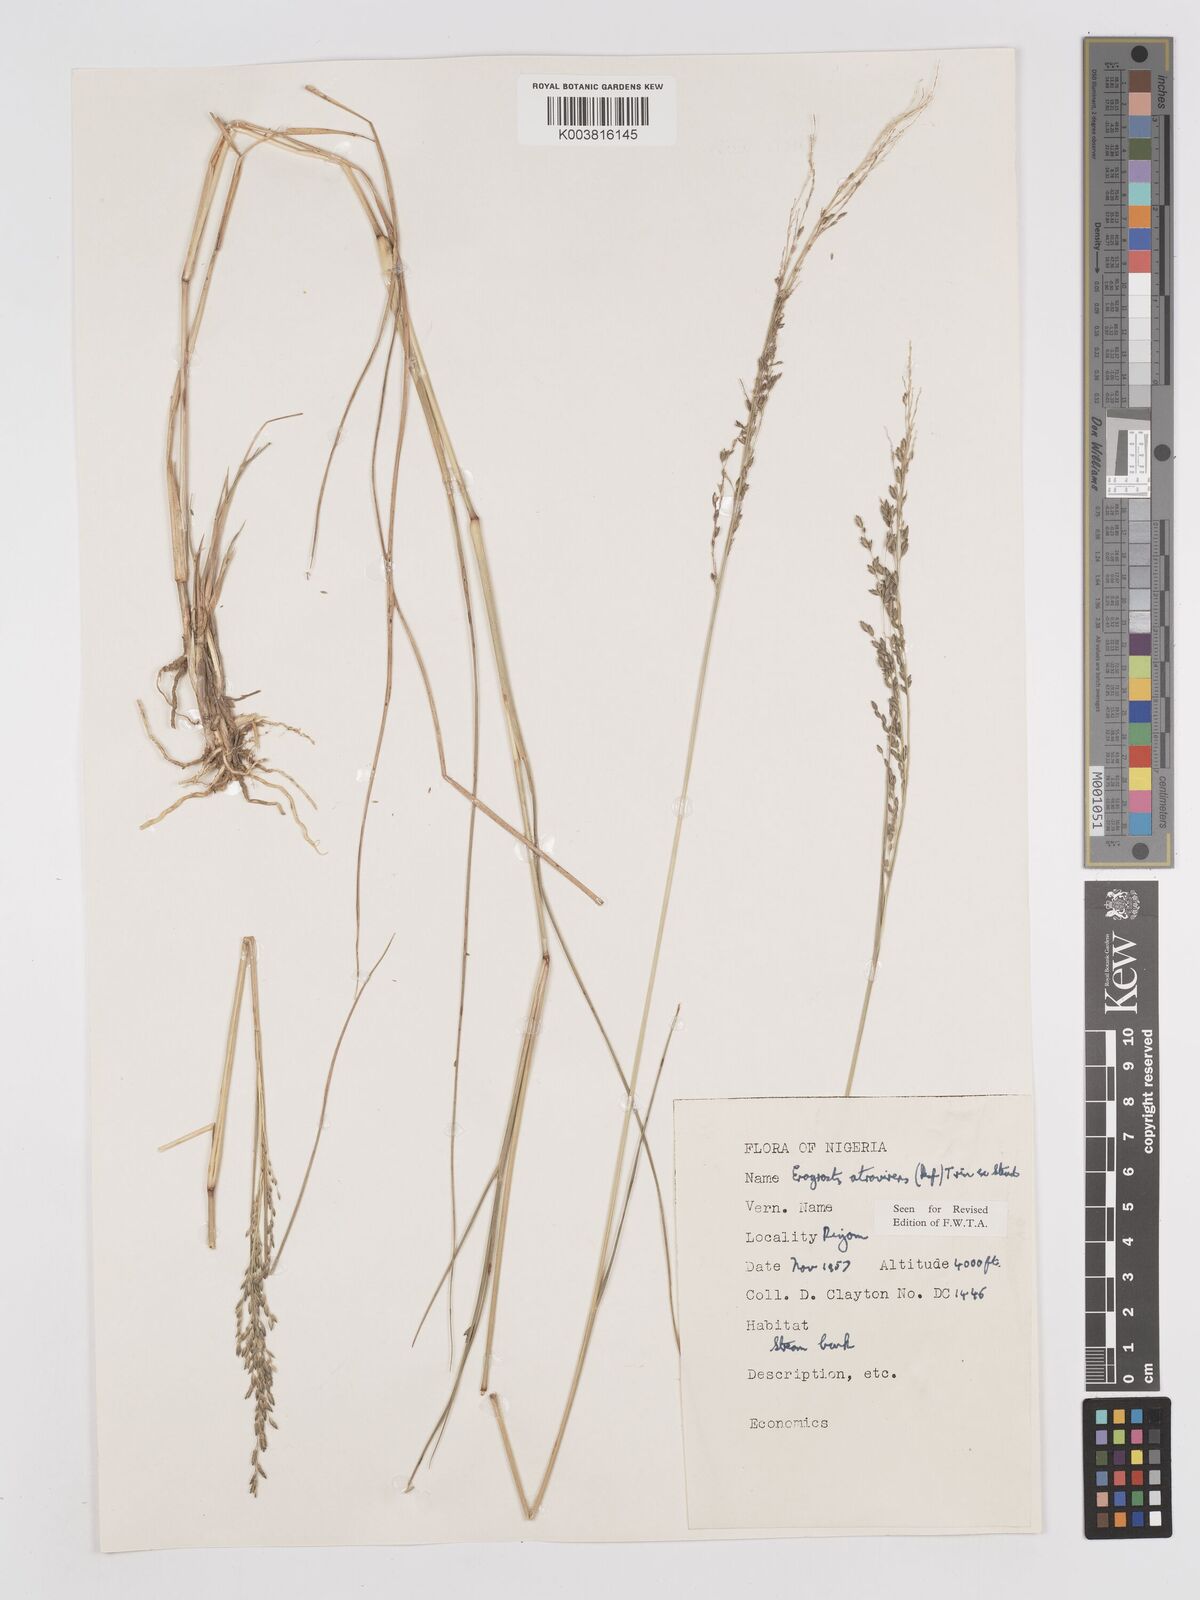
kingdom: Plantae
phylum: Tracheophyta
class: Liliopsida
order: Poales
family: Poaceae
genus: Eragrostis
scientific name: Eragrostis atrovirens
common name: Thalia lovegrass
